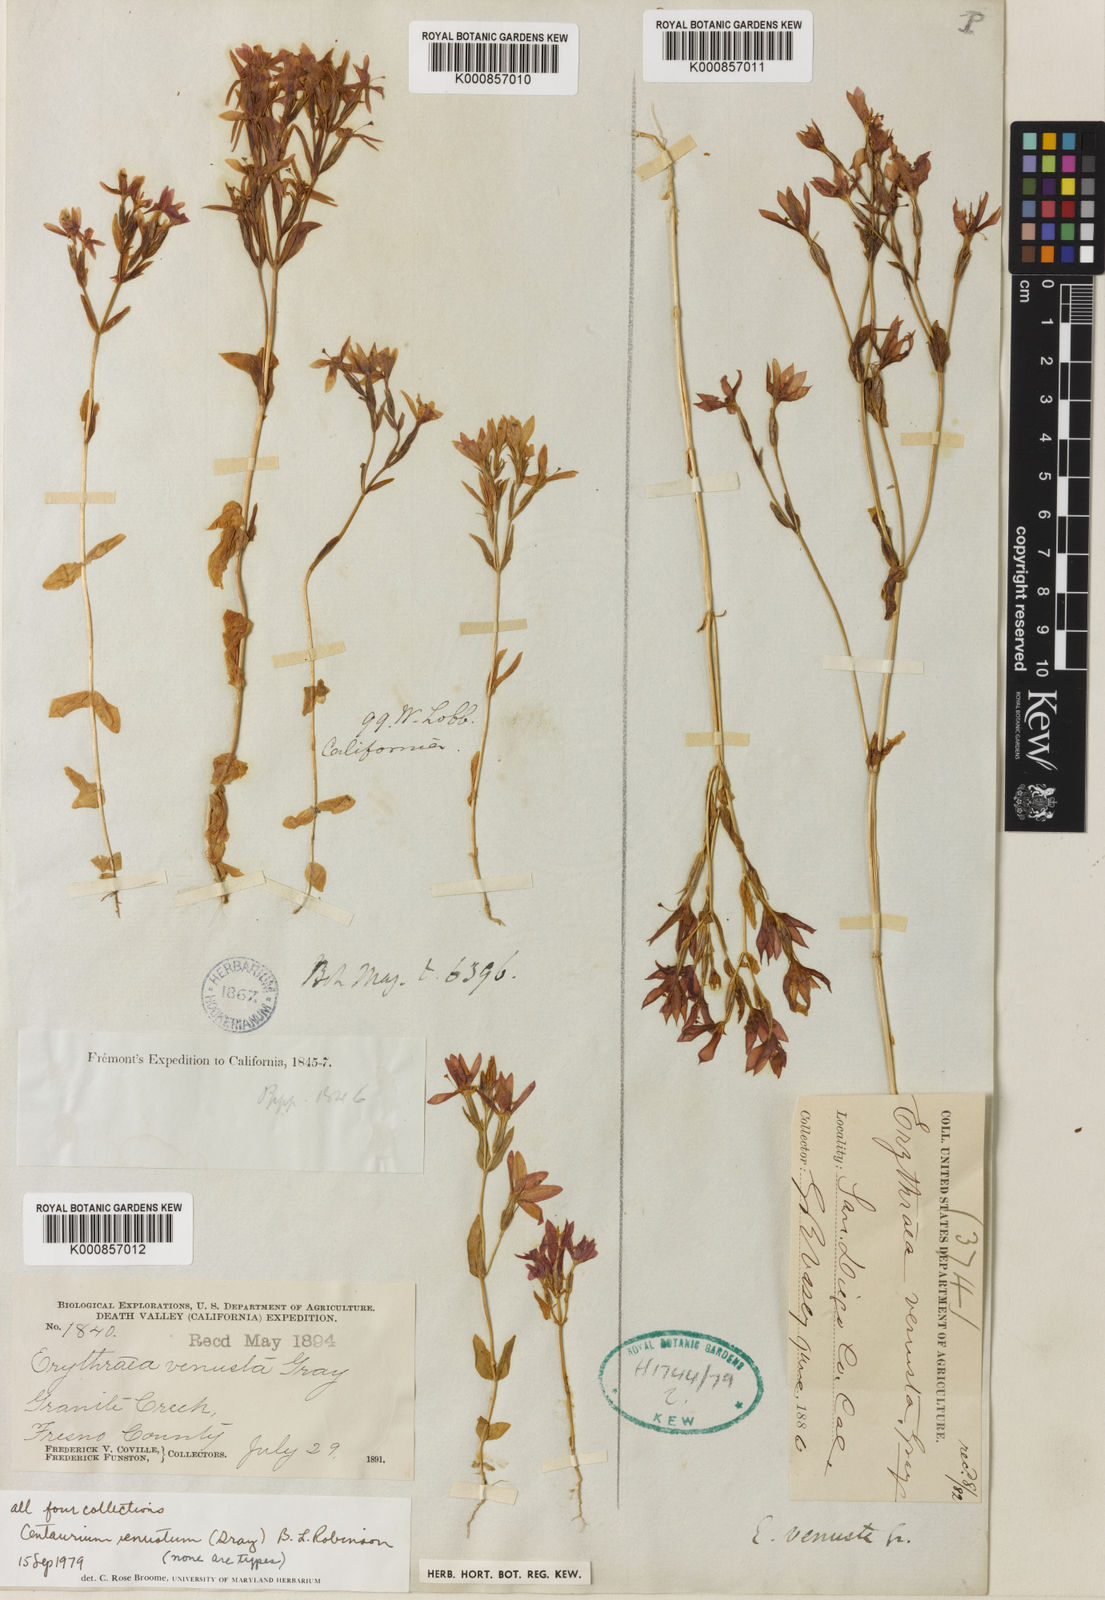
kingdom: Plantae
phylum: Tracheophyta
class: Magnoliopsida
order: Gentianales
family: Gentianaceae
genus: Zeltnera
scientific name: Zeltnera venusta
